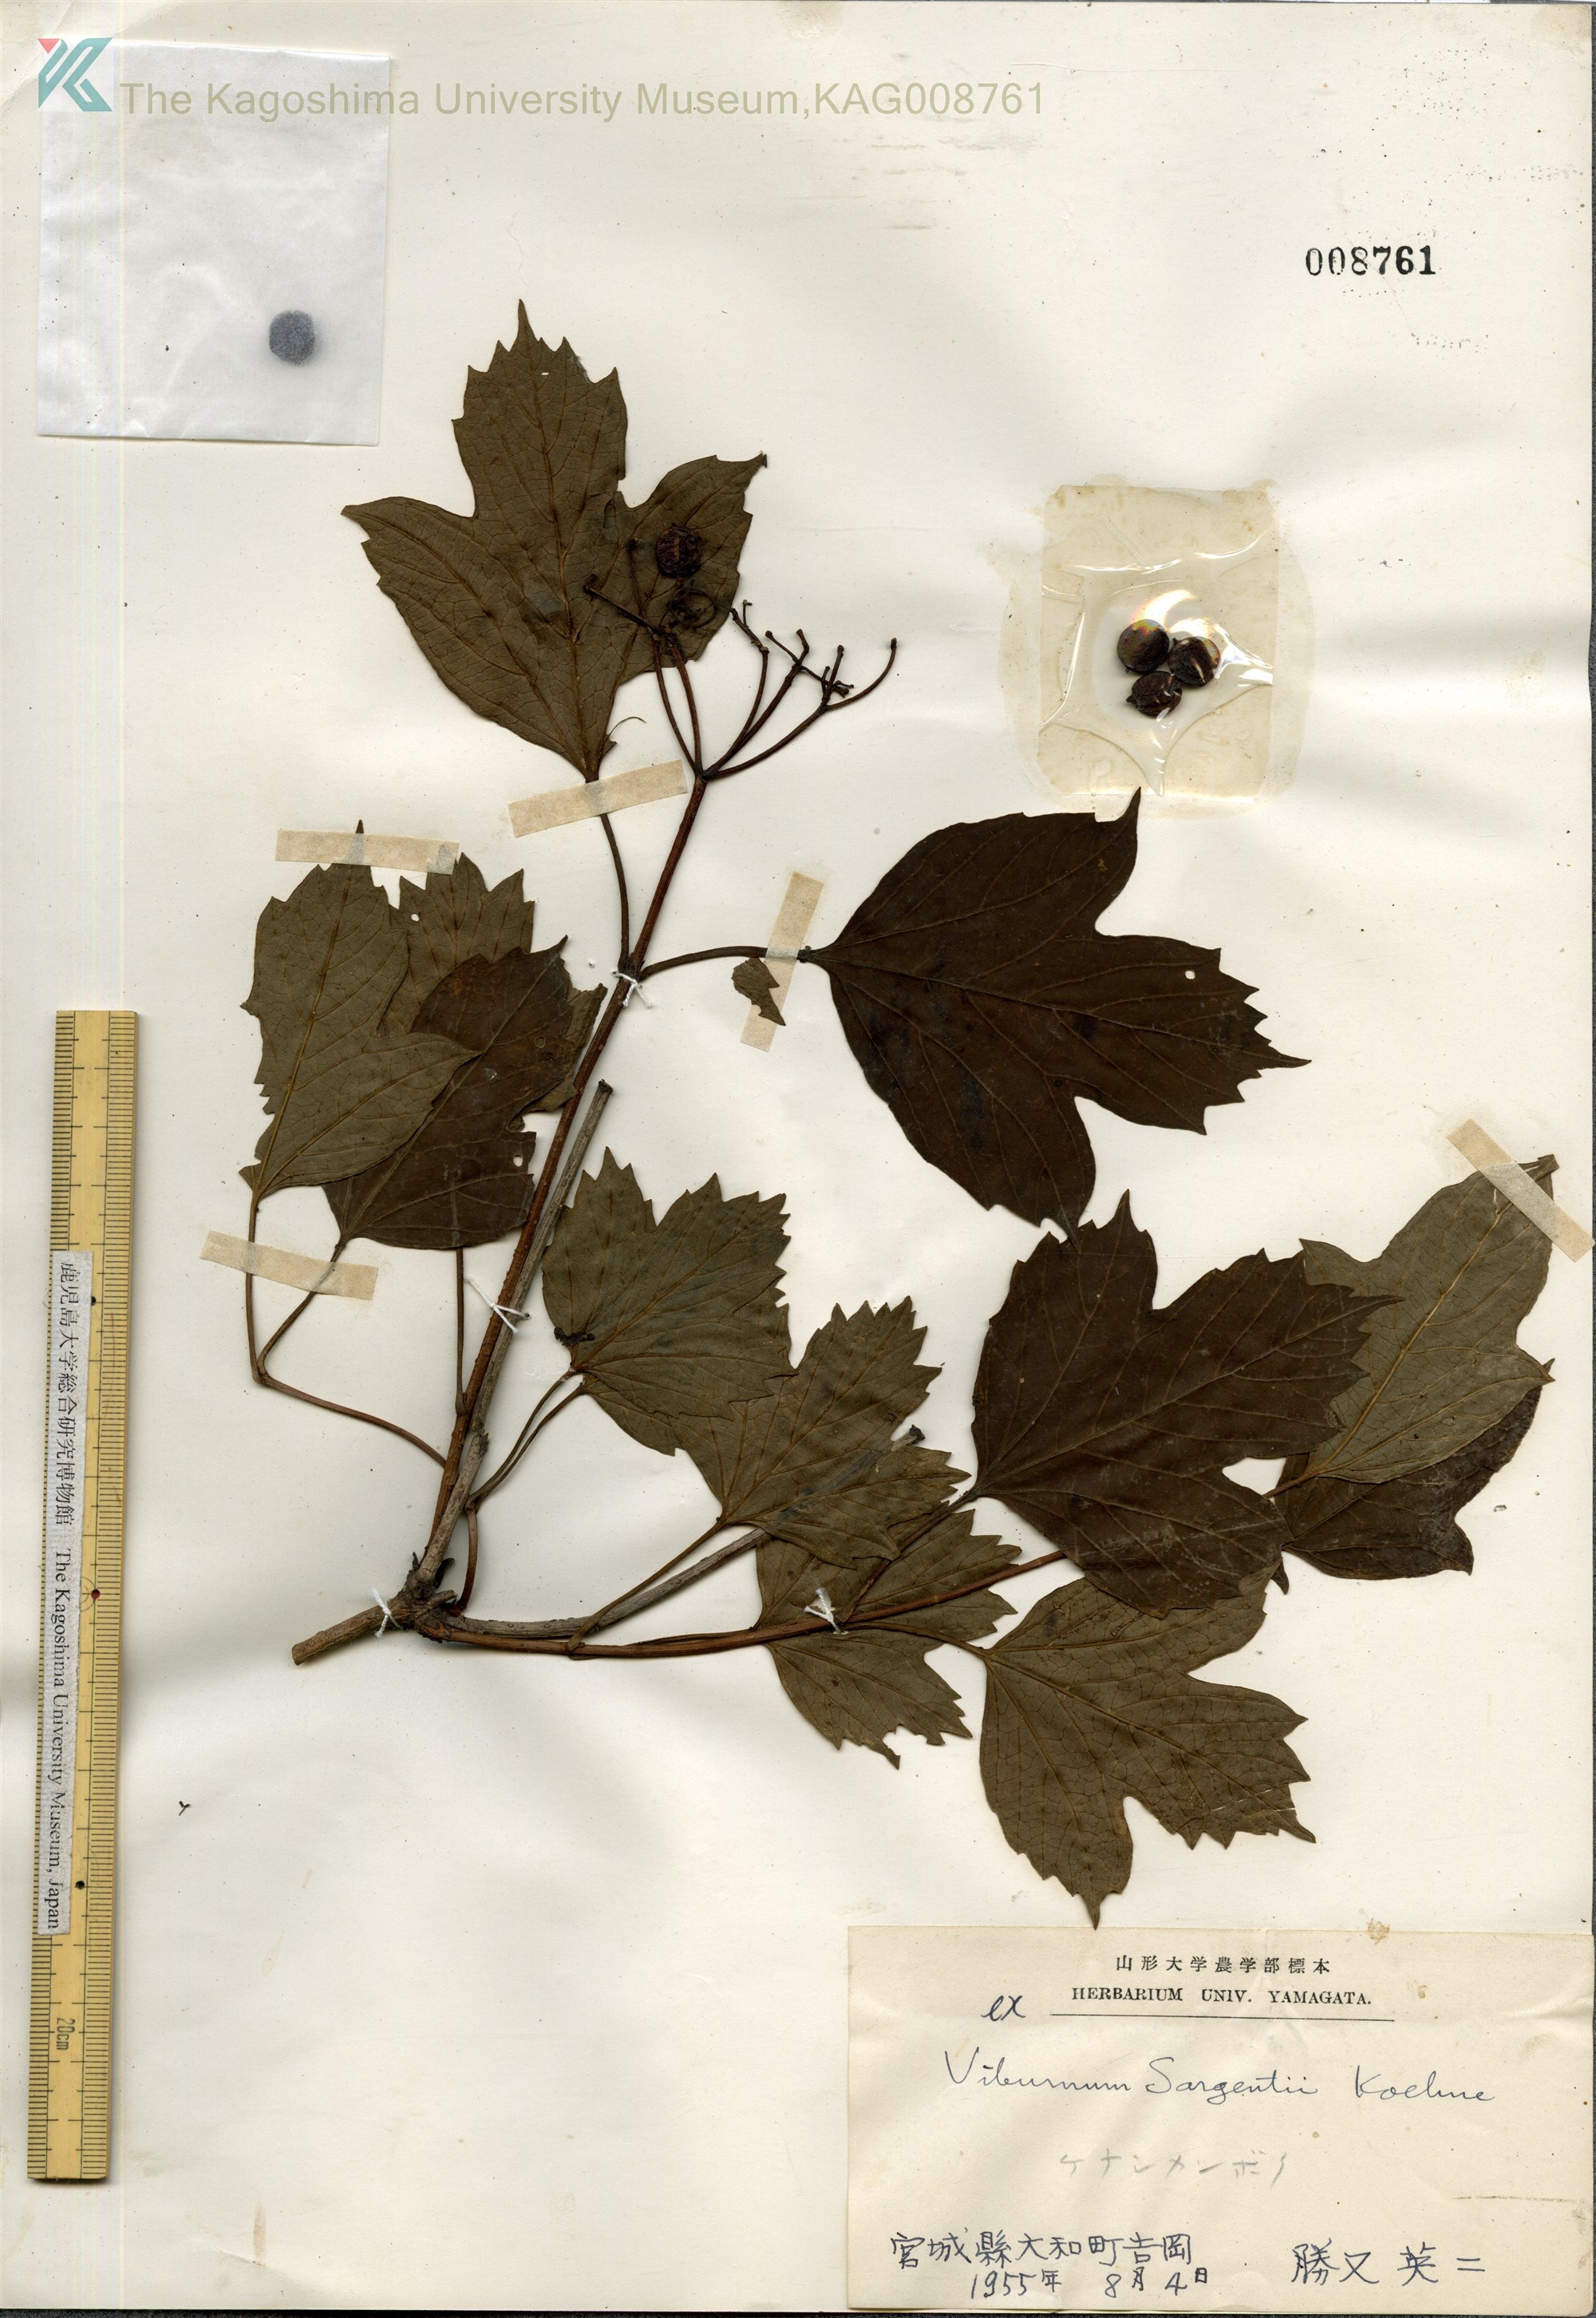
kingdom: Plantae
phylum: Tracheophyta
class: Magnoliopsida
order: Dipsacales
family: Viburnaceae
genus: Viburnum
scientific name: Viburnum opulus
